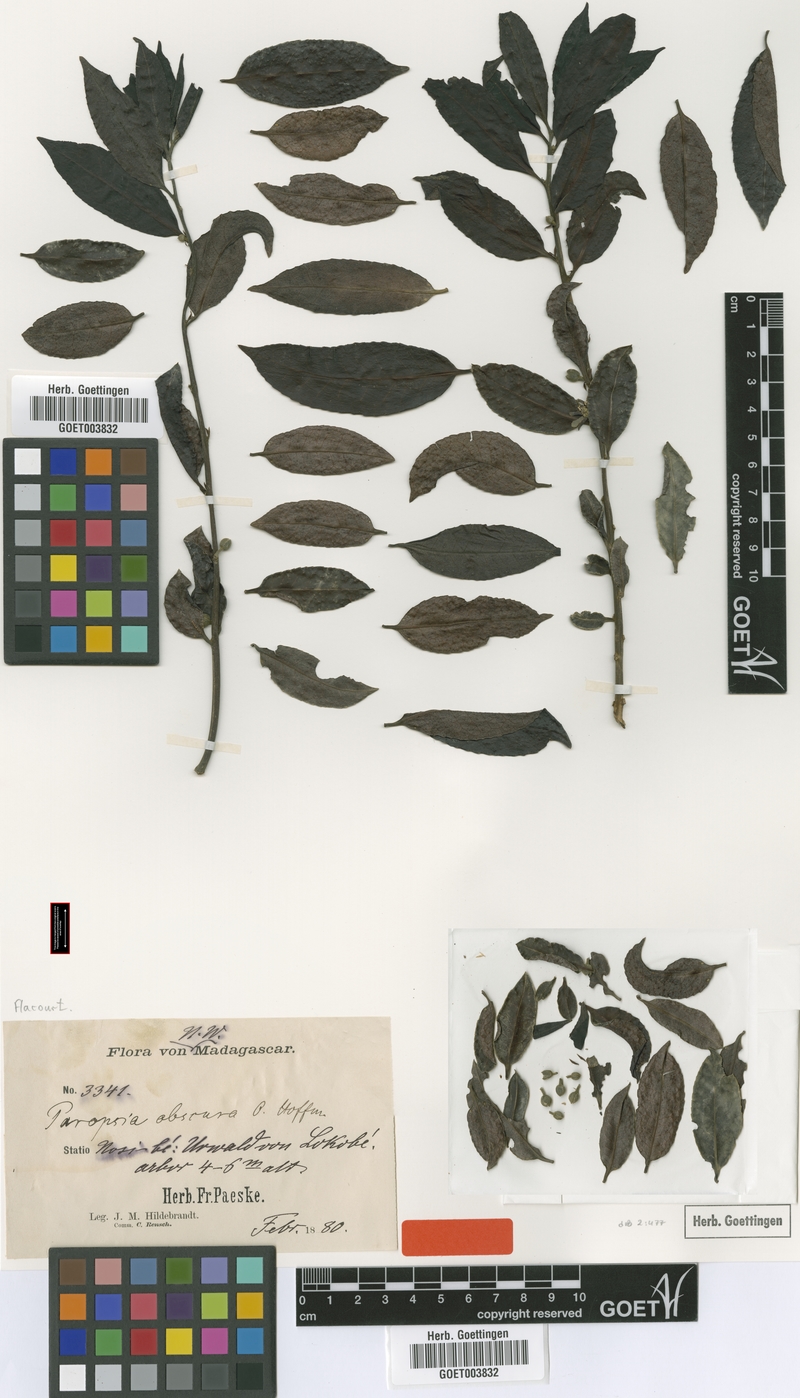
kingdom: Plantae
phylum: Tracheophyta
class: Magnoliopsida
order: Malpighiales
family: Passifloraceae
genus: Paropsia
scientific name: Paropsia obscura
